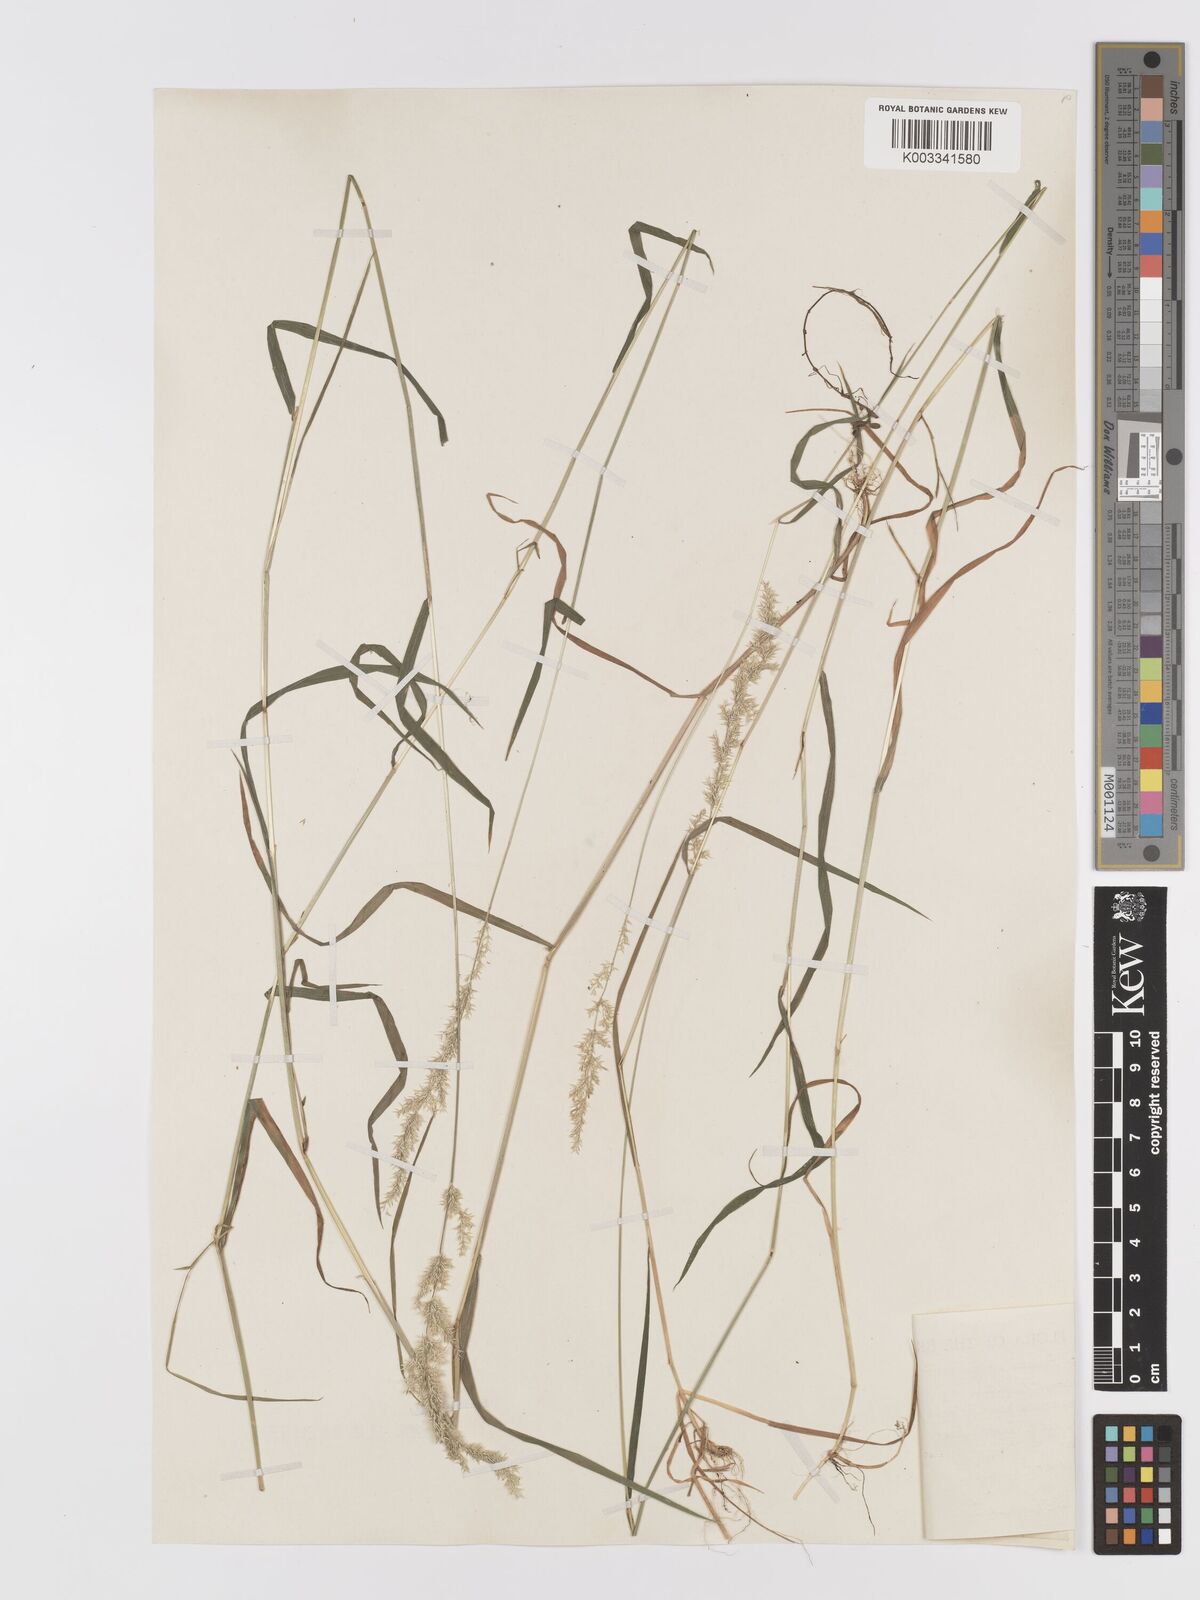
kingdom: Plantae
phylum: Tracheophyta
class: Liliopsida
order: Poales
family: Poaceae
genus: Agrostis
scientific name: Agrostis stolonifera
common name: Creeping bentgrass
